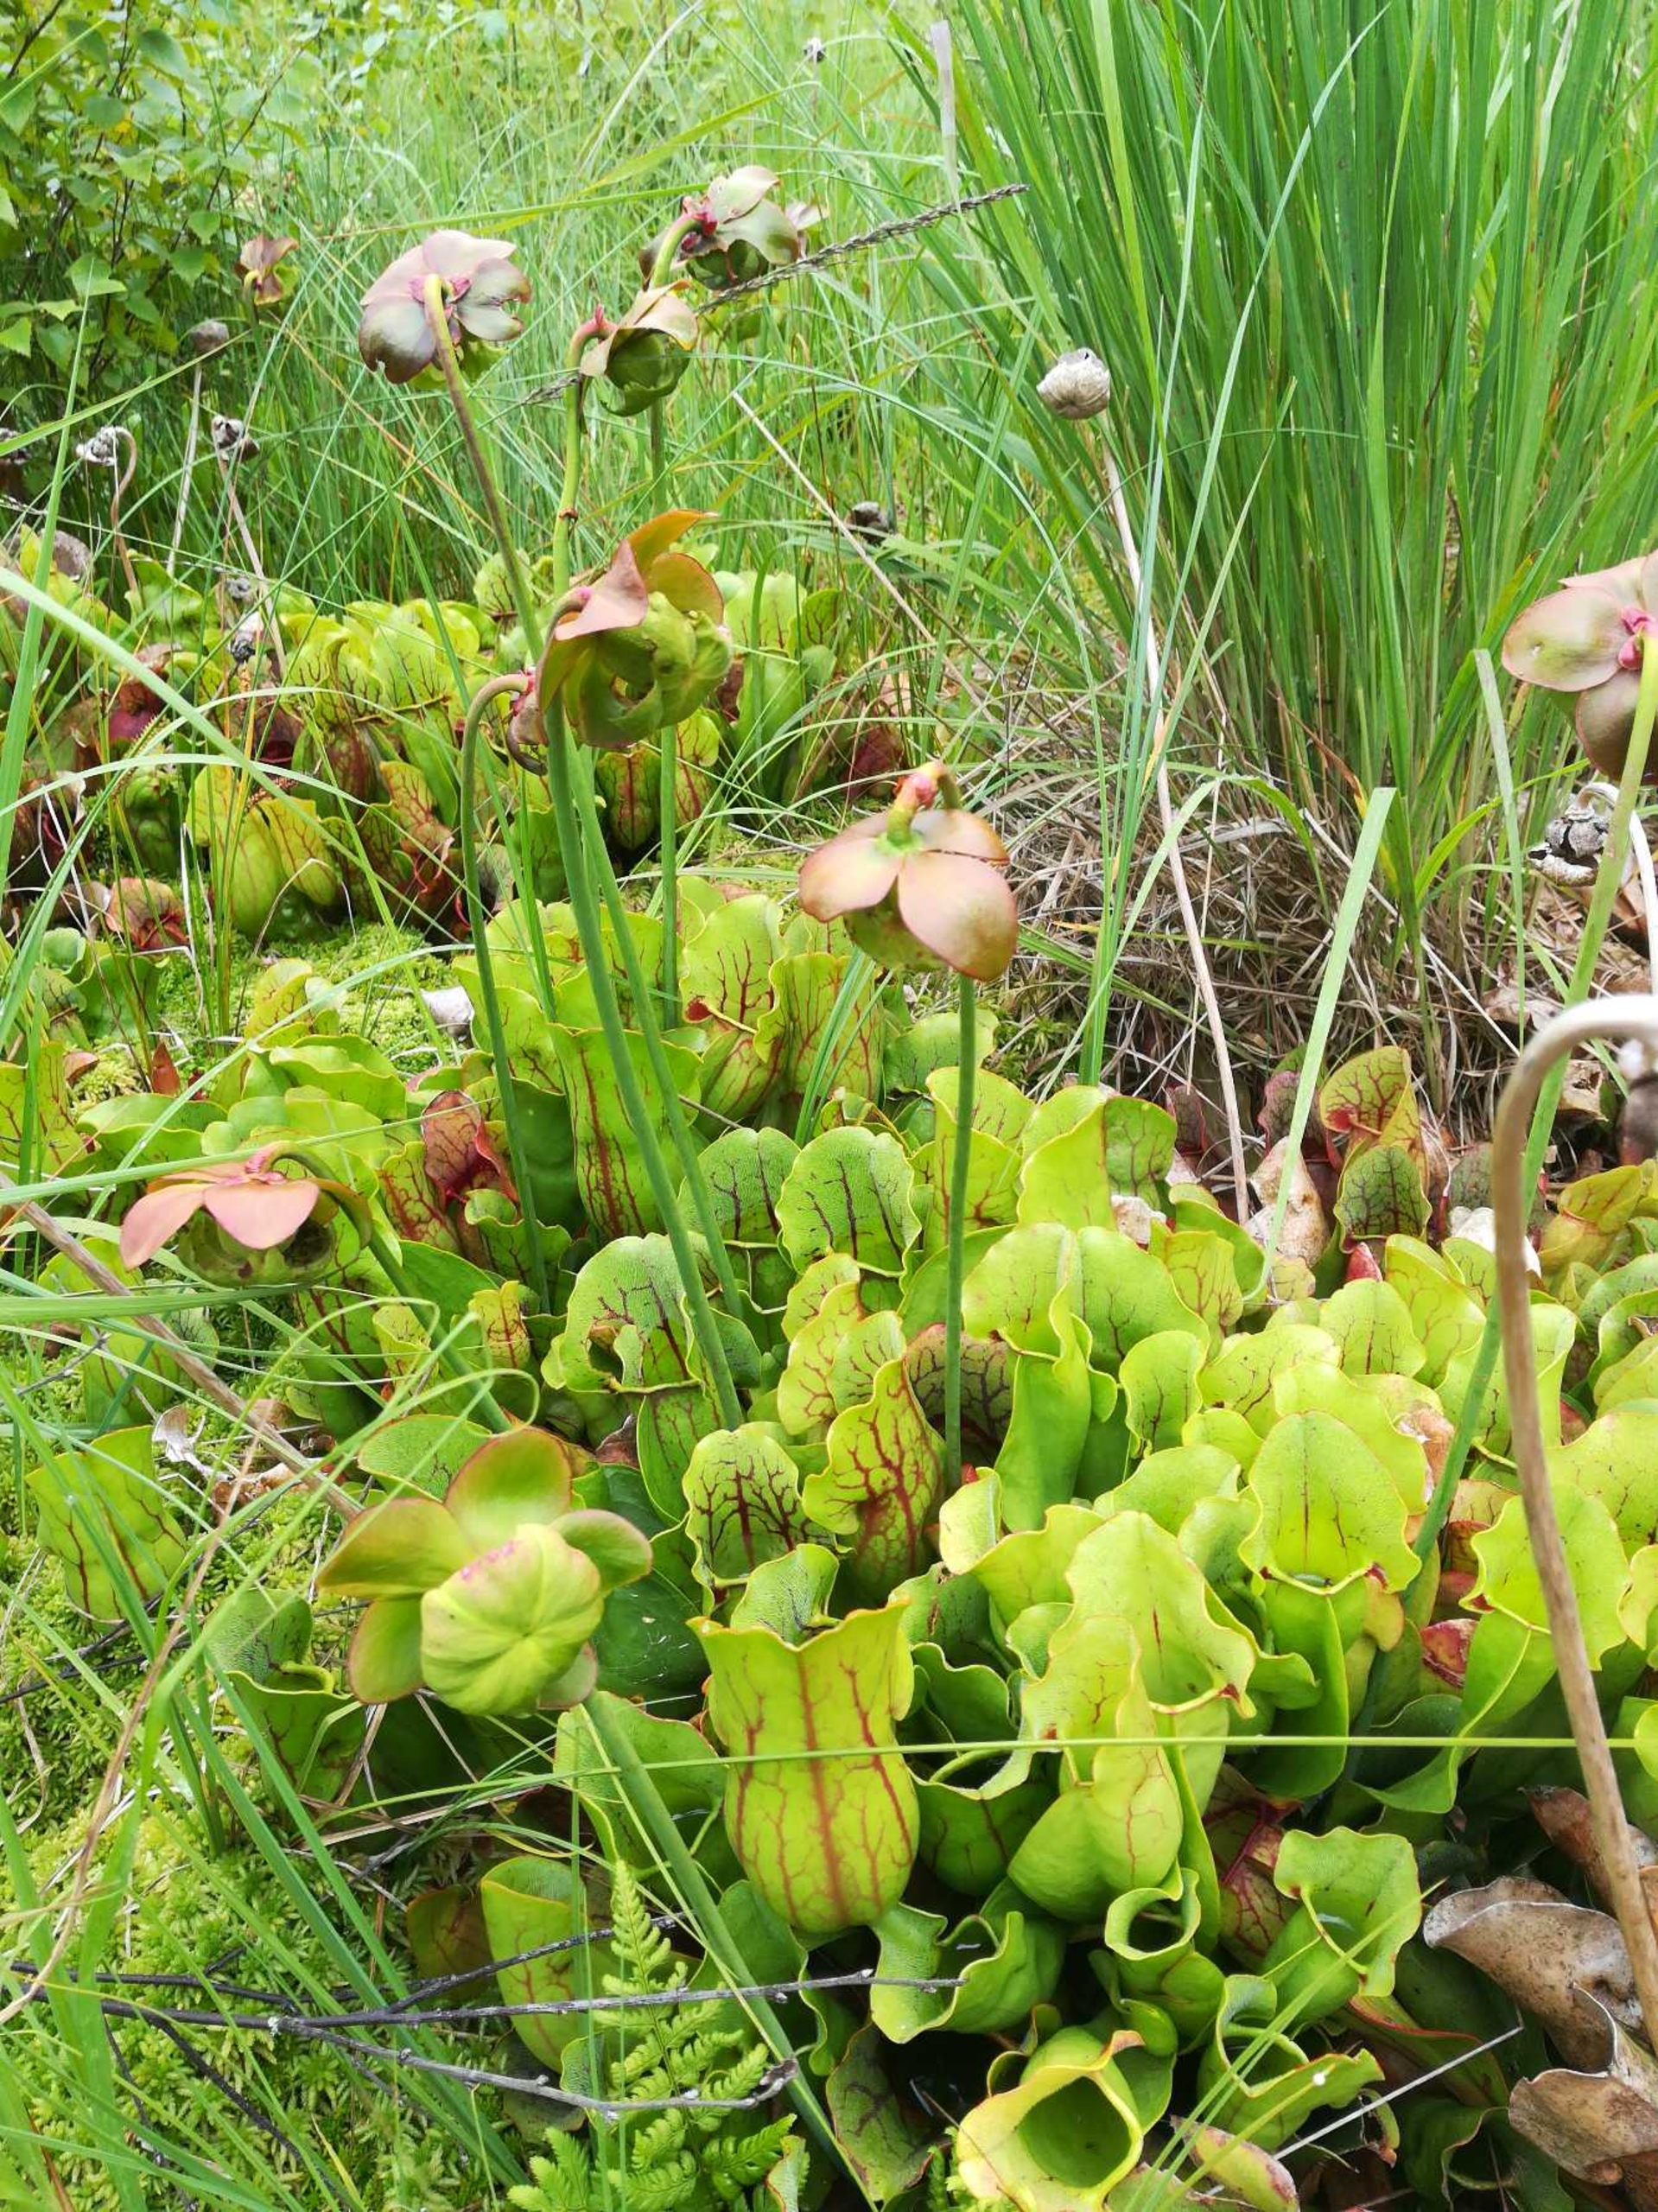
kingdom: Plantae
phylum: Tracheophyta
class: Magnoliopsida
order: Ericales
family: Sarraceniaceae
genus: Sarracenia
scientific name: Sarracenia purpurea
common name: Trompetblad
